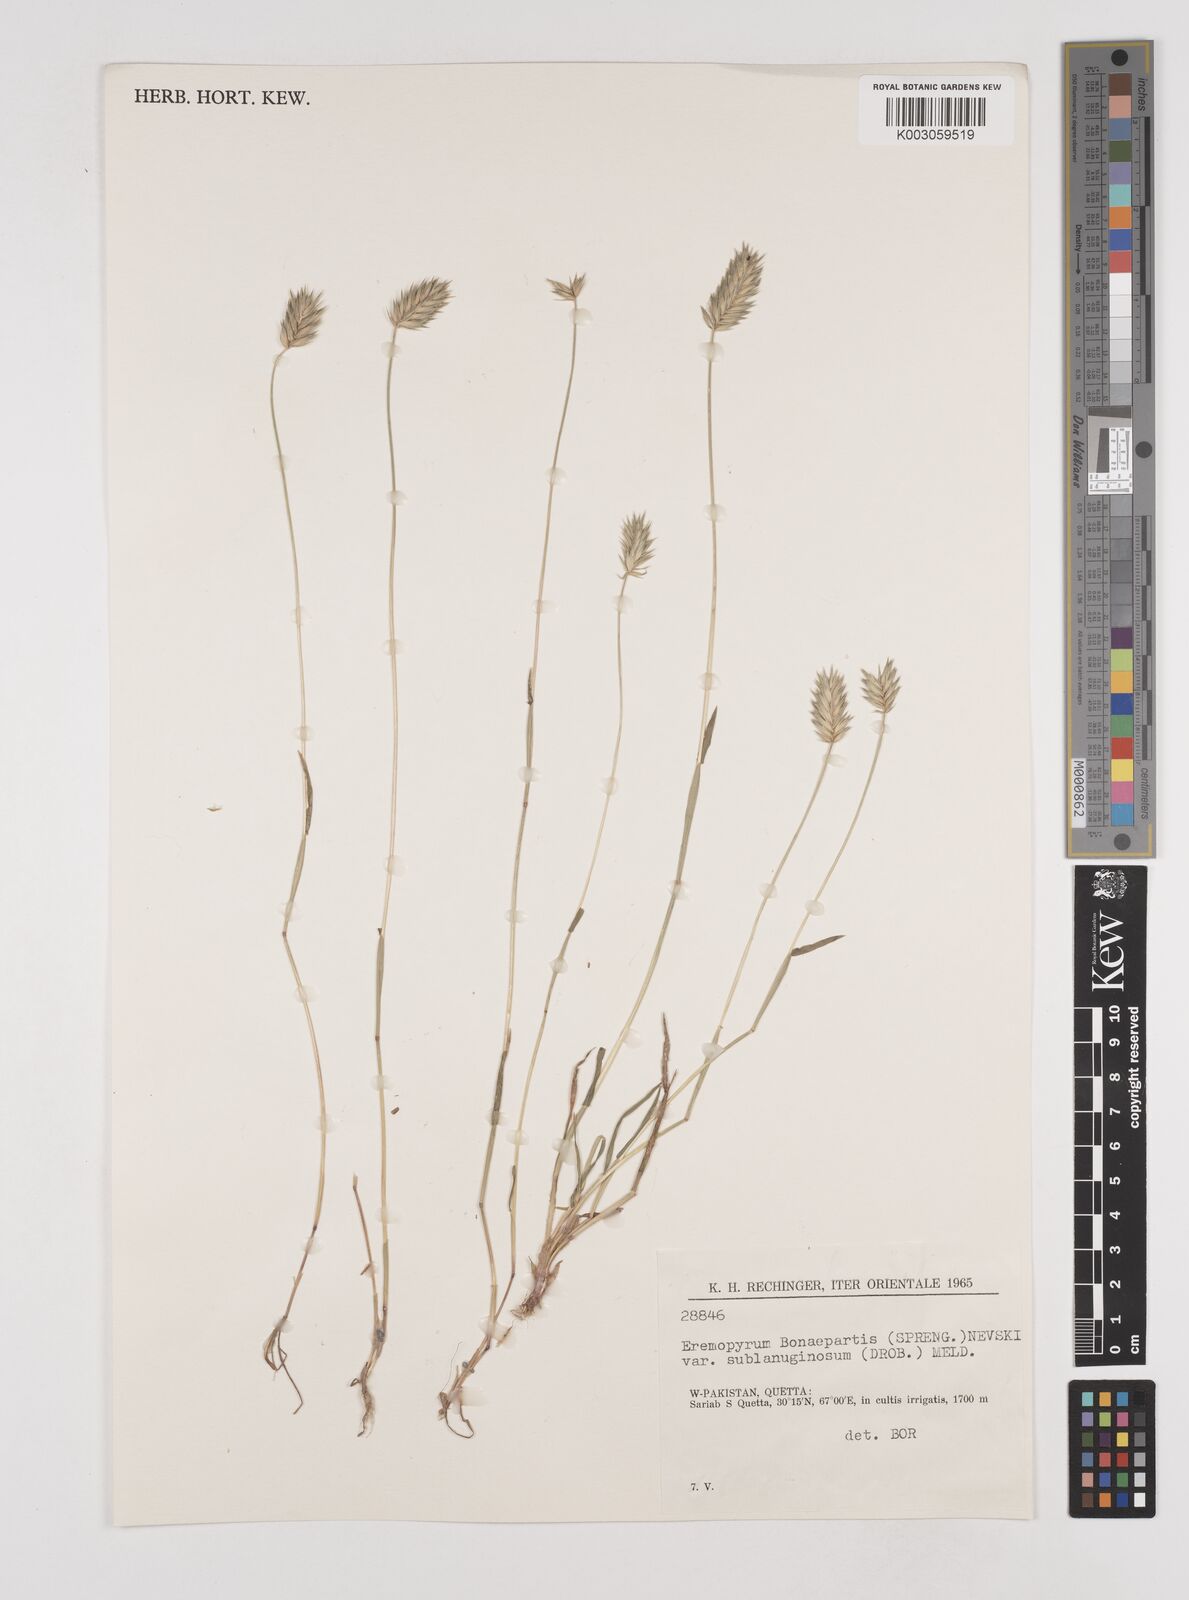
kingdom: Plantae
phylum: Tracheophyta
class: Liliopsida
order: Poales
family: Poaceae
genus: Eremopyrum
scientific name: Eremopyrum bonaepartis
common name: Tapertip false wheatgrass
